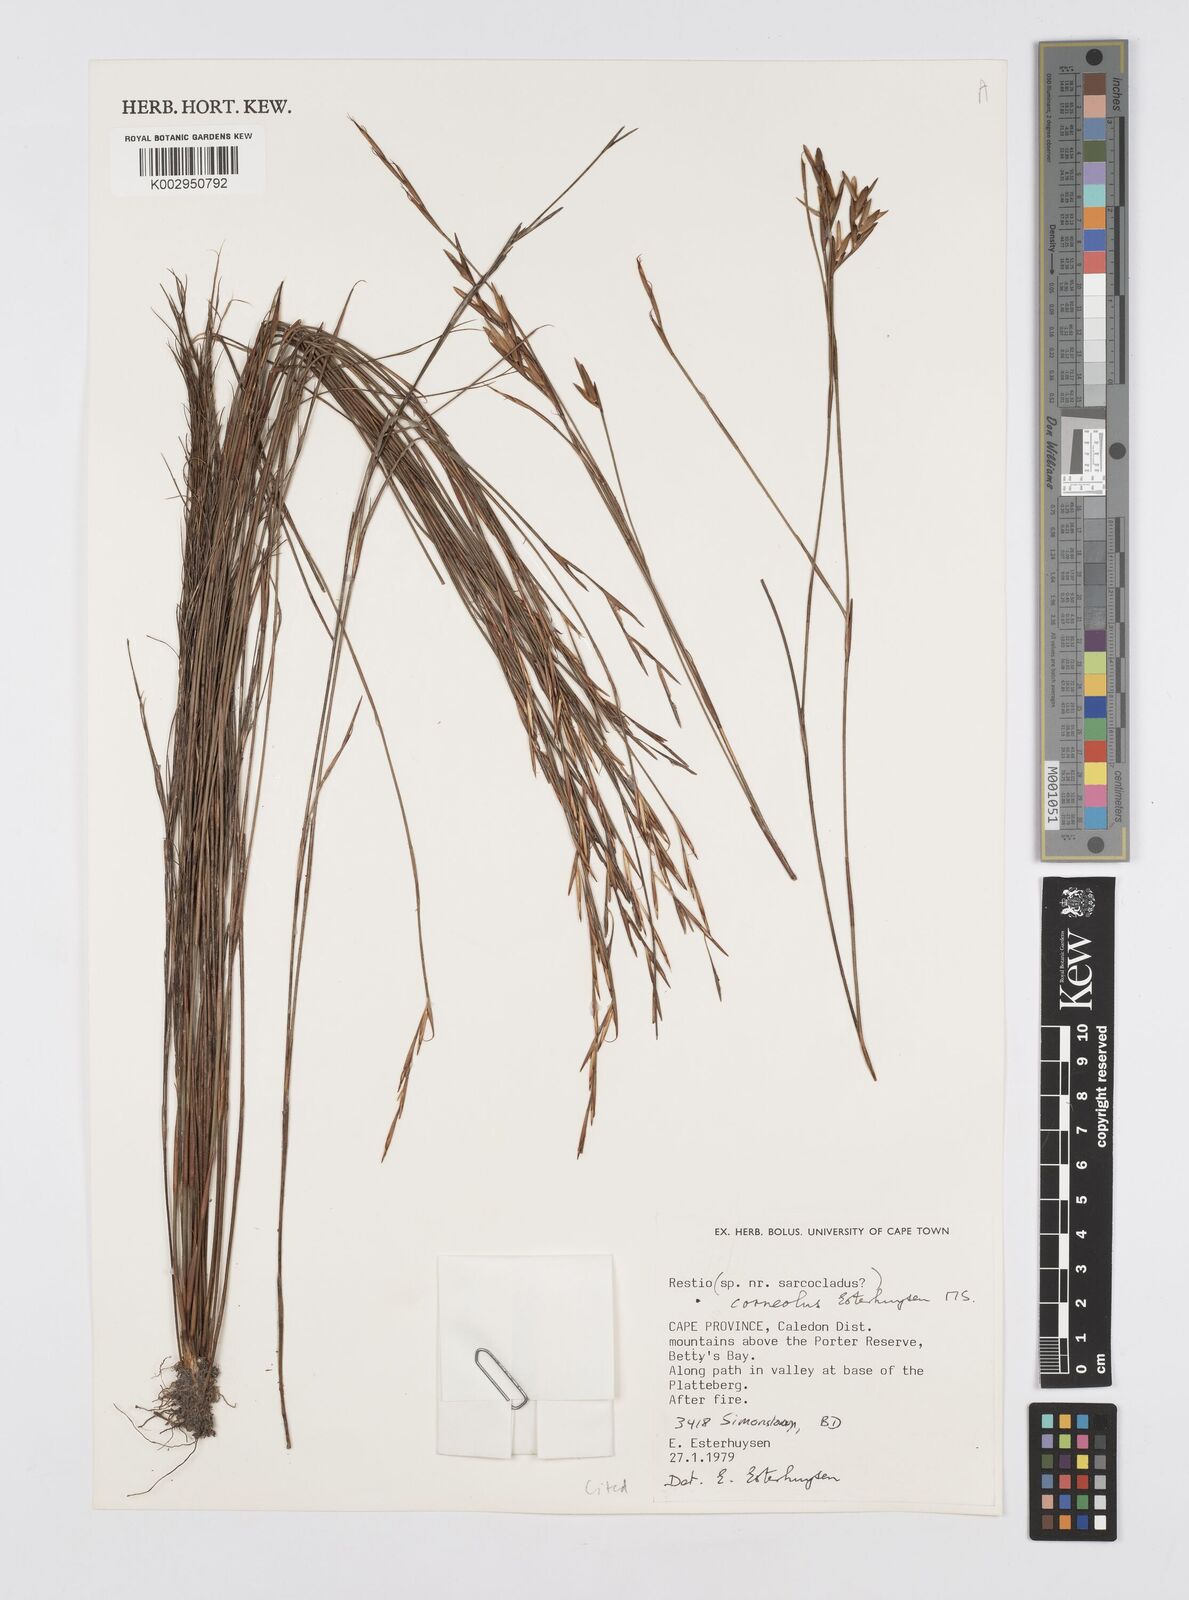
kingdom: Plantae
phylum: Tracheophyta
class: Liliopsida
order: Poales
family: Restionaceae
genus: Restio
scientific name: Restio corneolus
